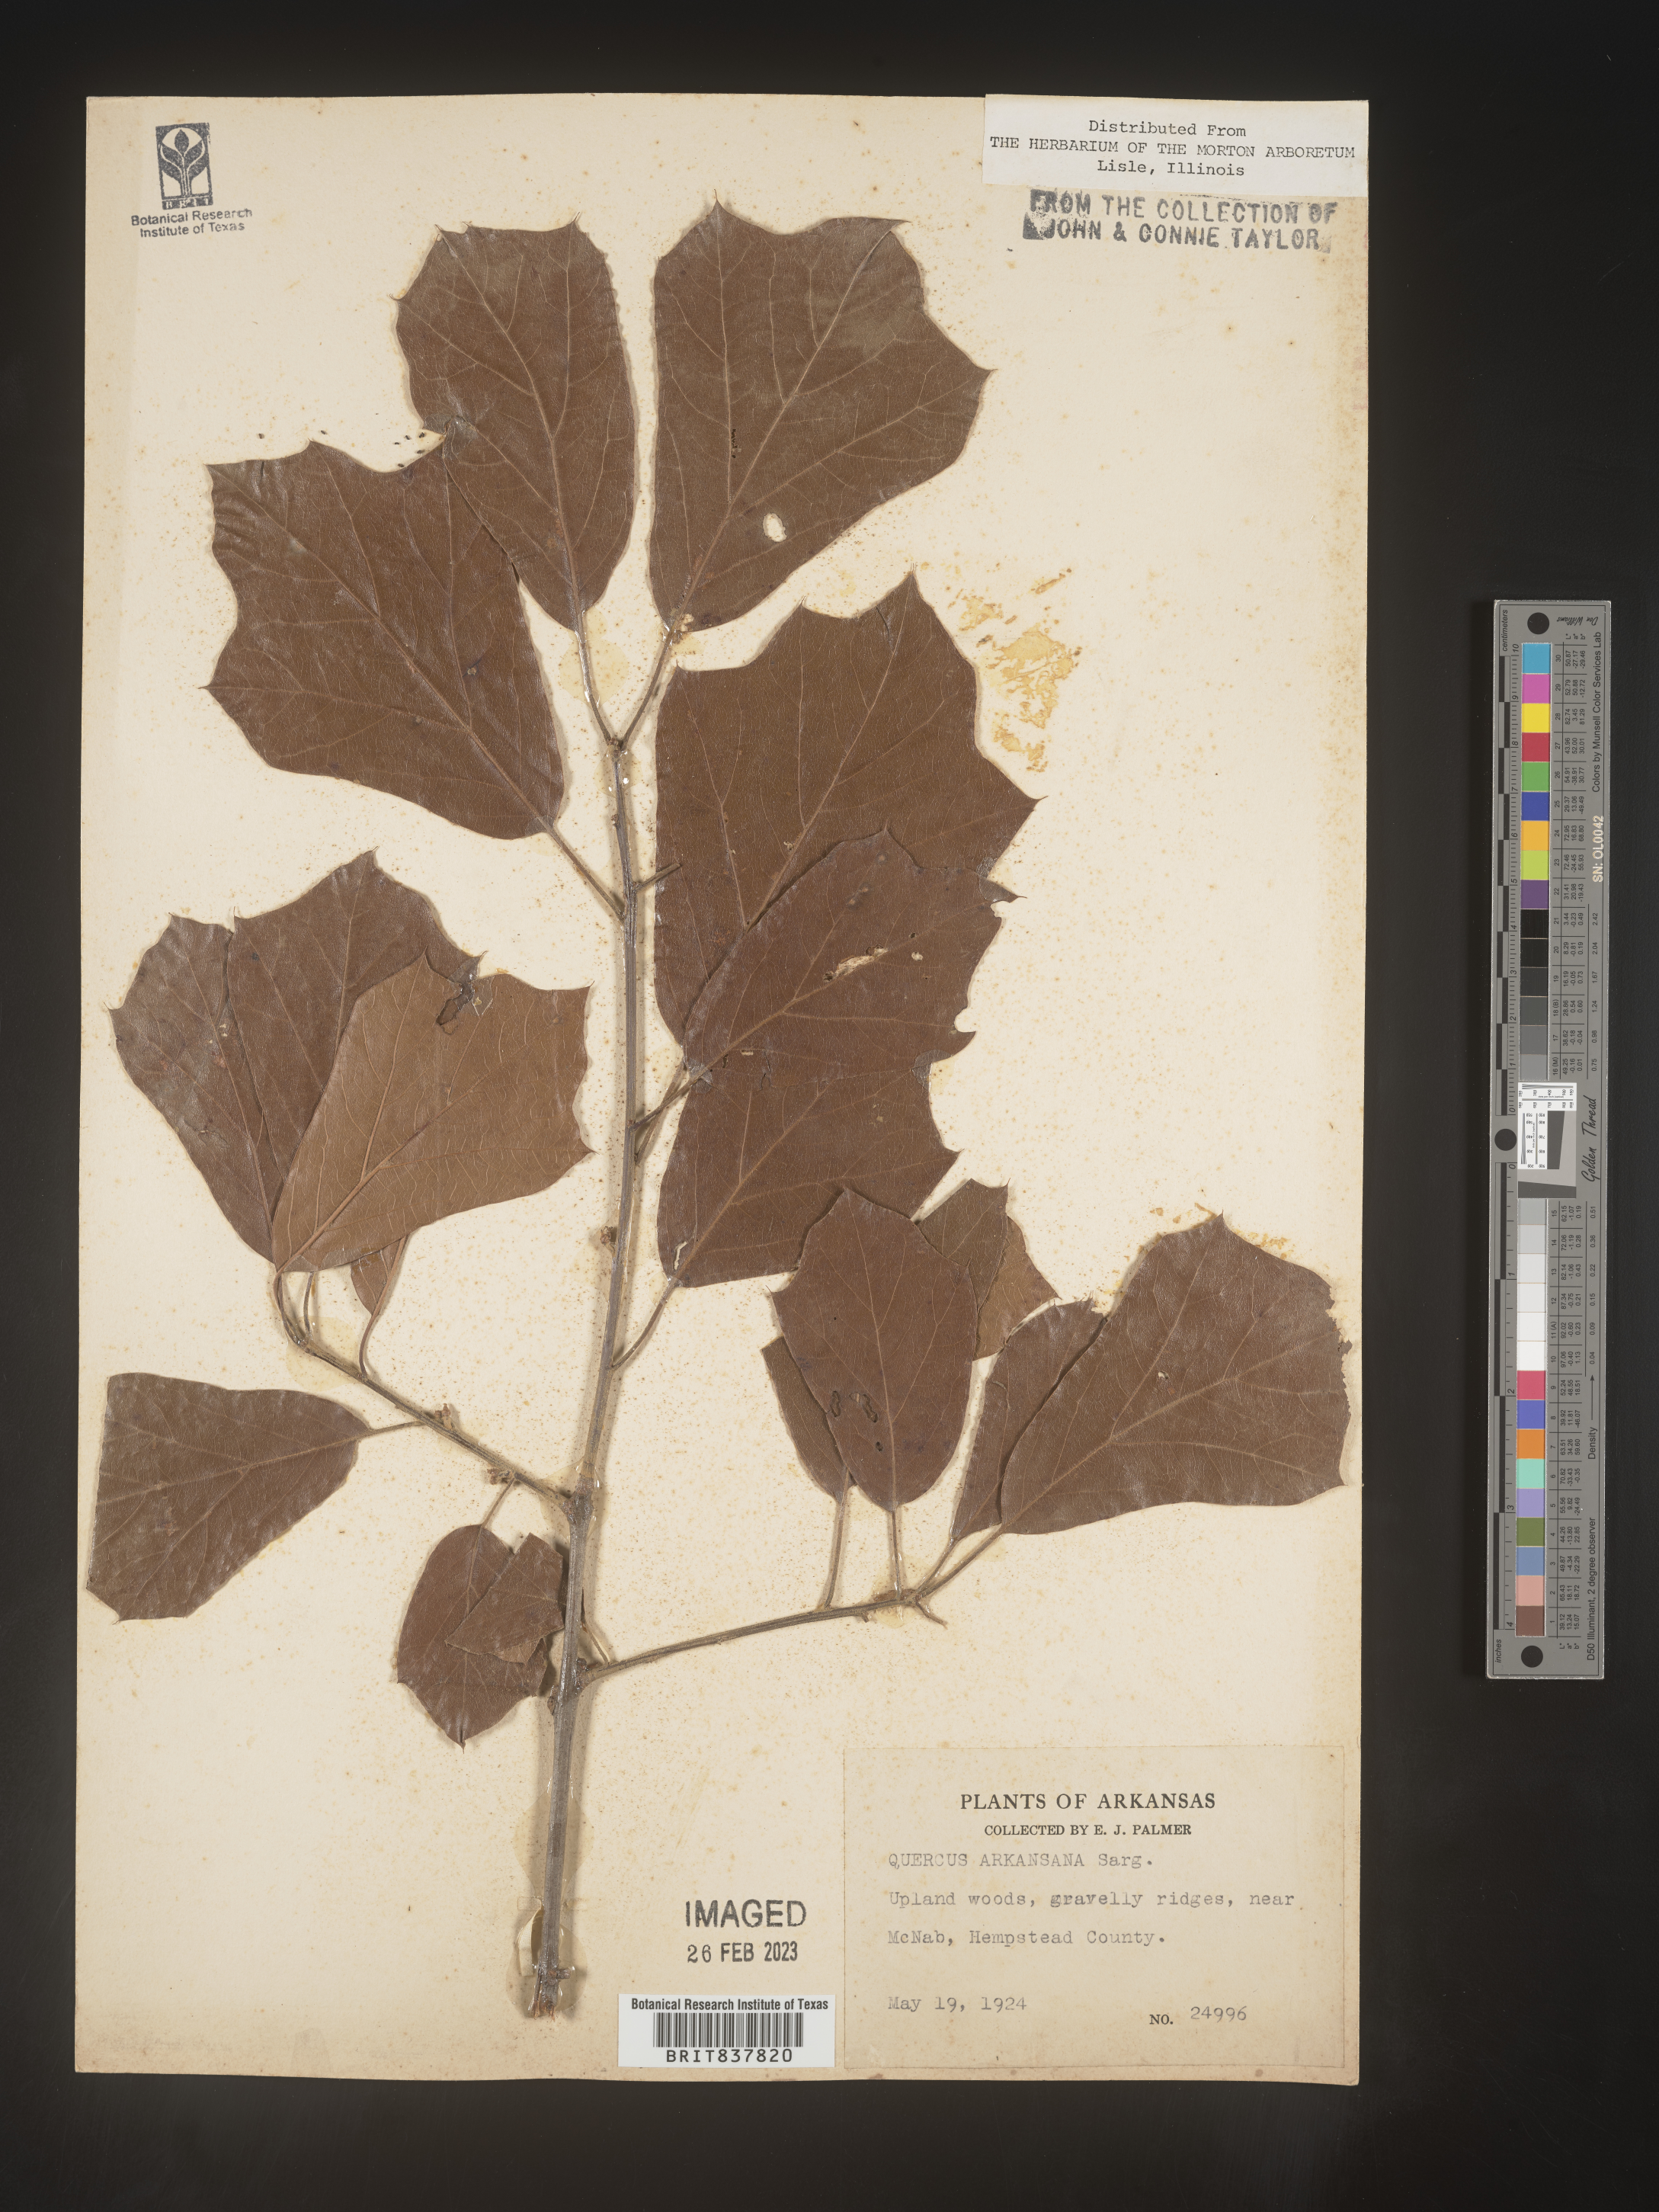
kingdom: Plantae
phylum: Tracheophyta
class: Magnoliopsida
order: Fagales
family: Fagaceae
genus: Quercus
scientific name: Quercus arkansana
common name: Arkansas oak
